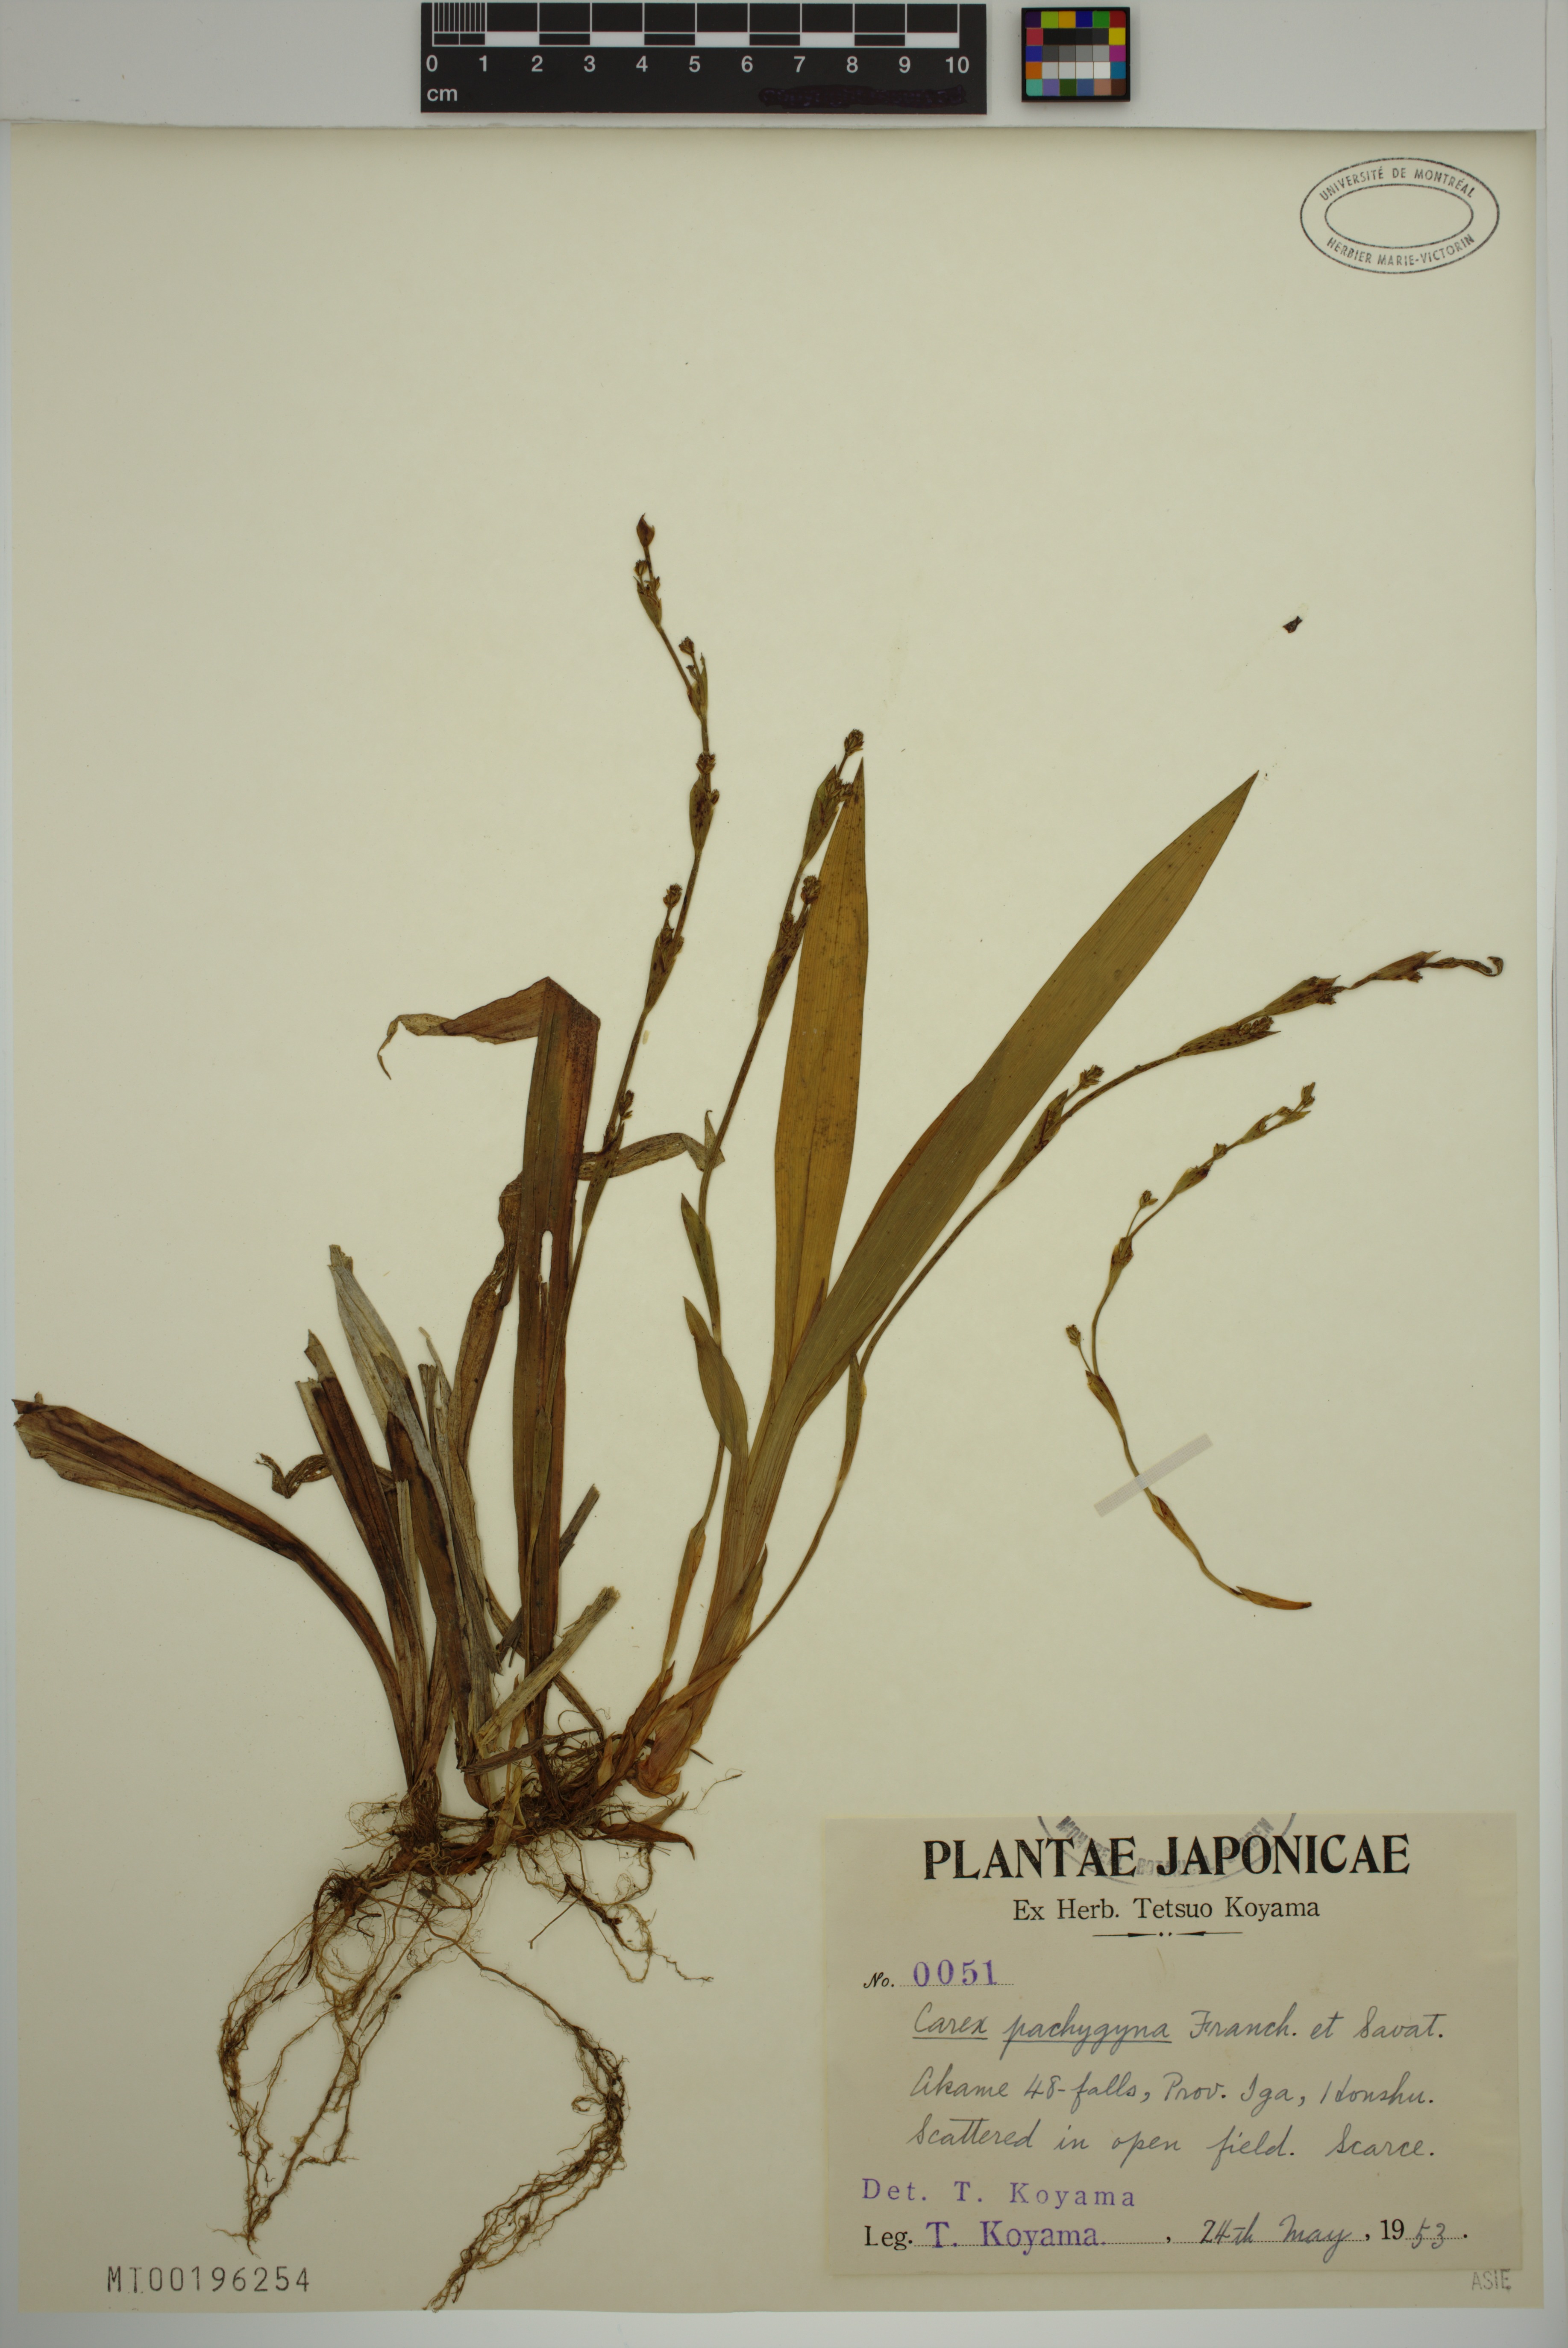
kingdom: Plantae
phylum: Tracheophyta
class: Liliopsida
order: Poales
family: Cyperaceae
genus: Carex
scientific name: Carex pachygyna
